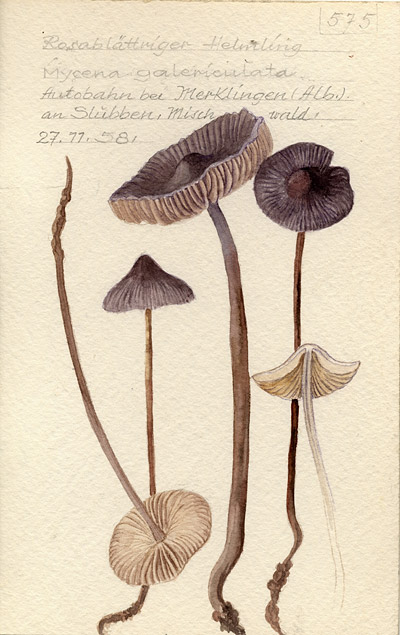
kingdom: Fungi
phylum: Basidiomycota
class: Agaricomycetes
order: Agaricales
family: Mycenaceae
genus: Mycena
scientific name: Mycena galericulata
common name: Bonnet mycena
